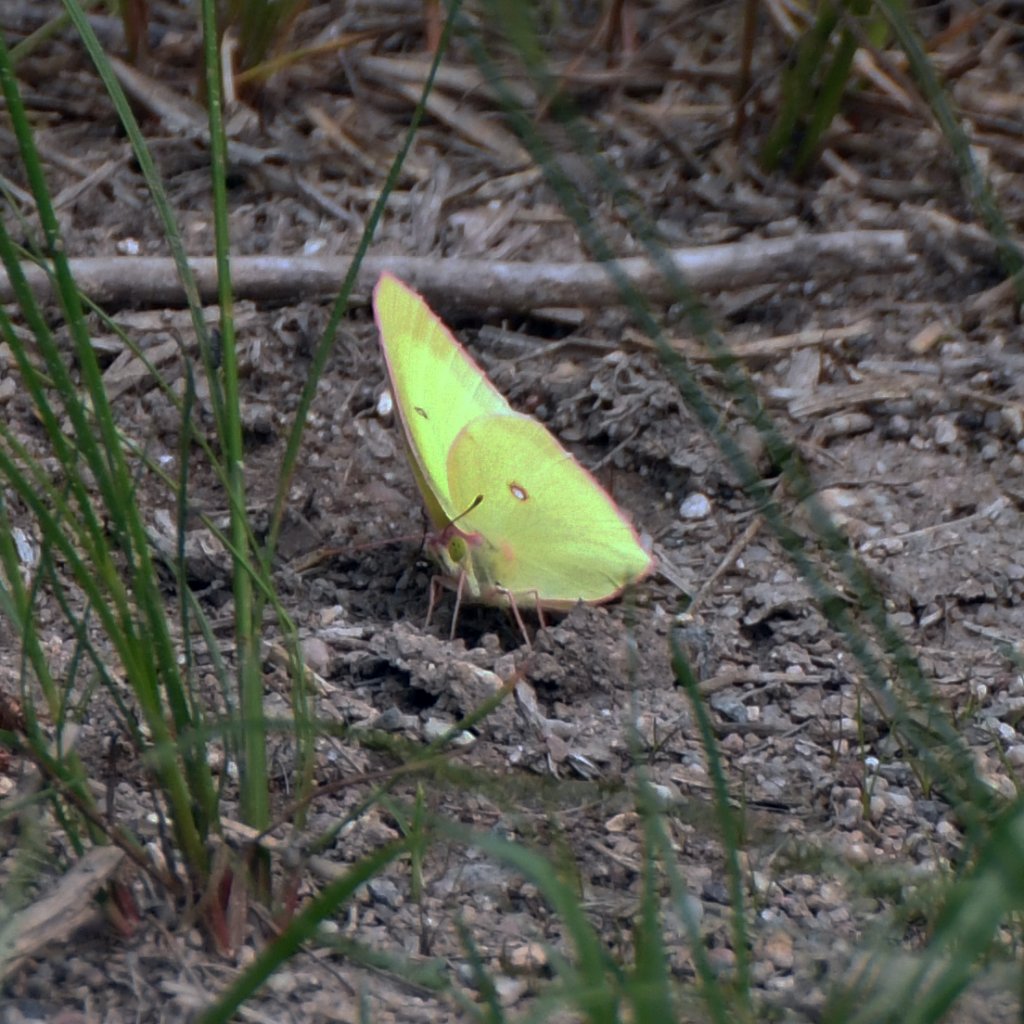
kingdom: Animalia
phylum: Arthropoda
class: Insecta
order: Lepidoptera
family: Pieridae
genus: Colias
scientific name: Colias interior
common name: Pink-edged Sulphur
